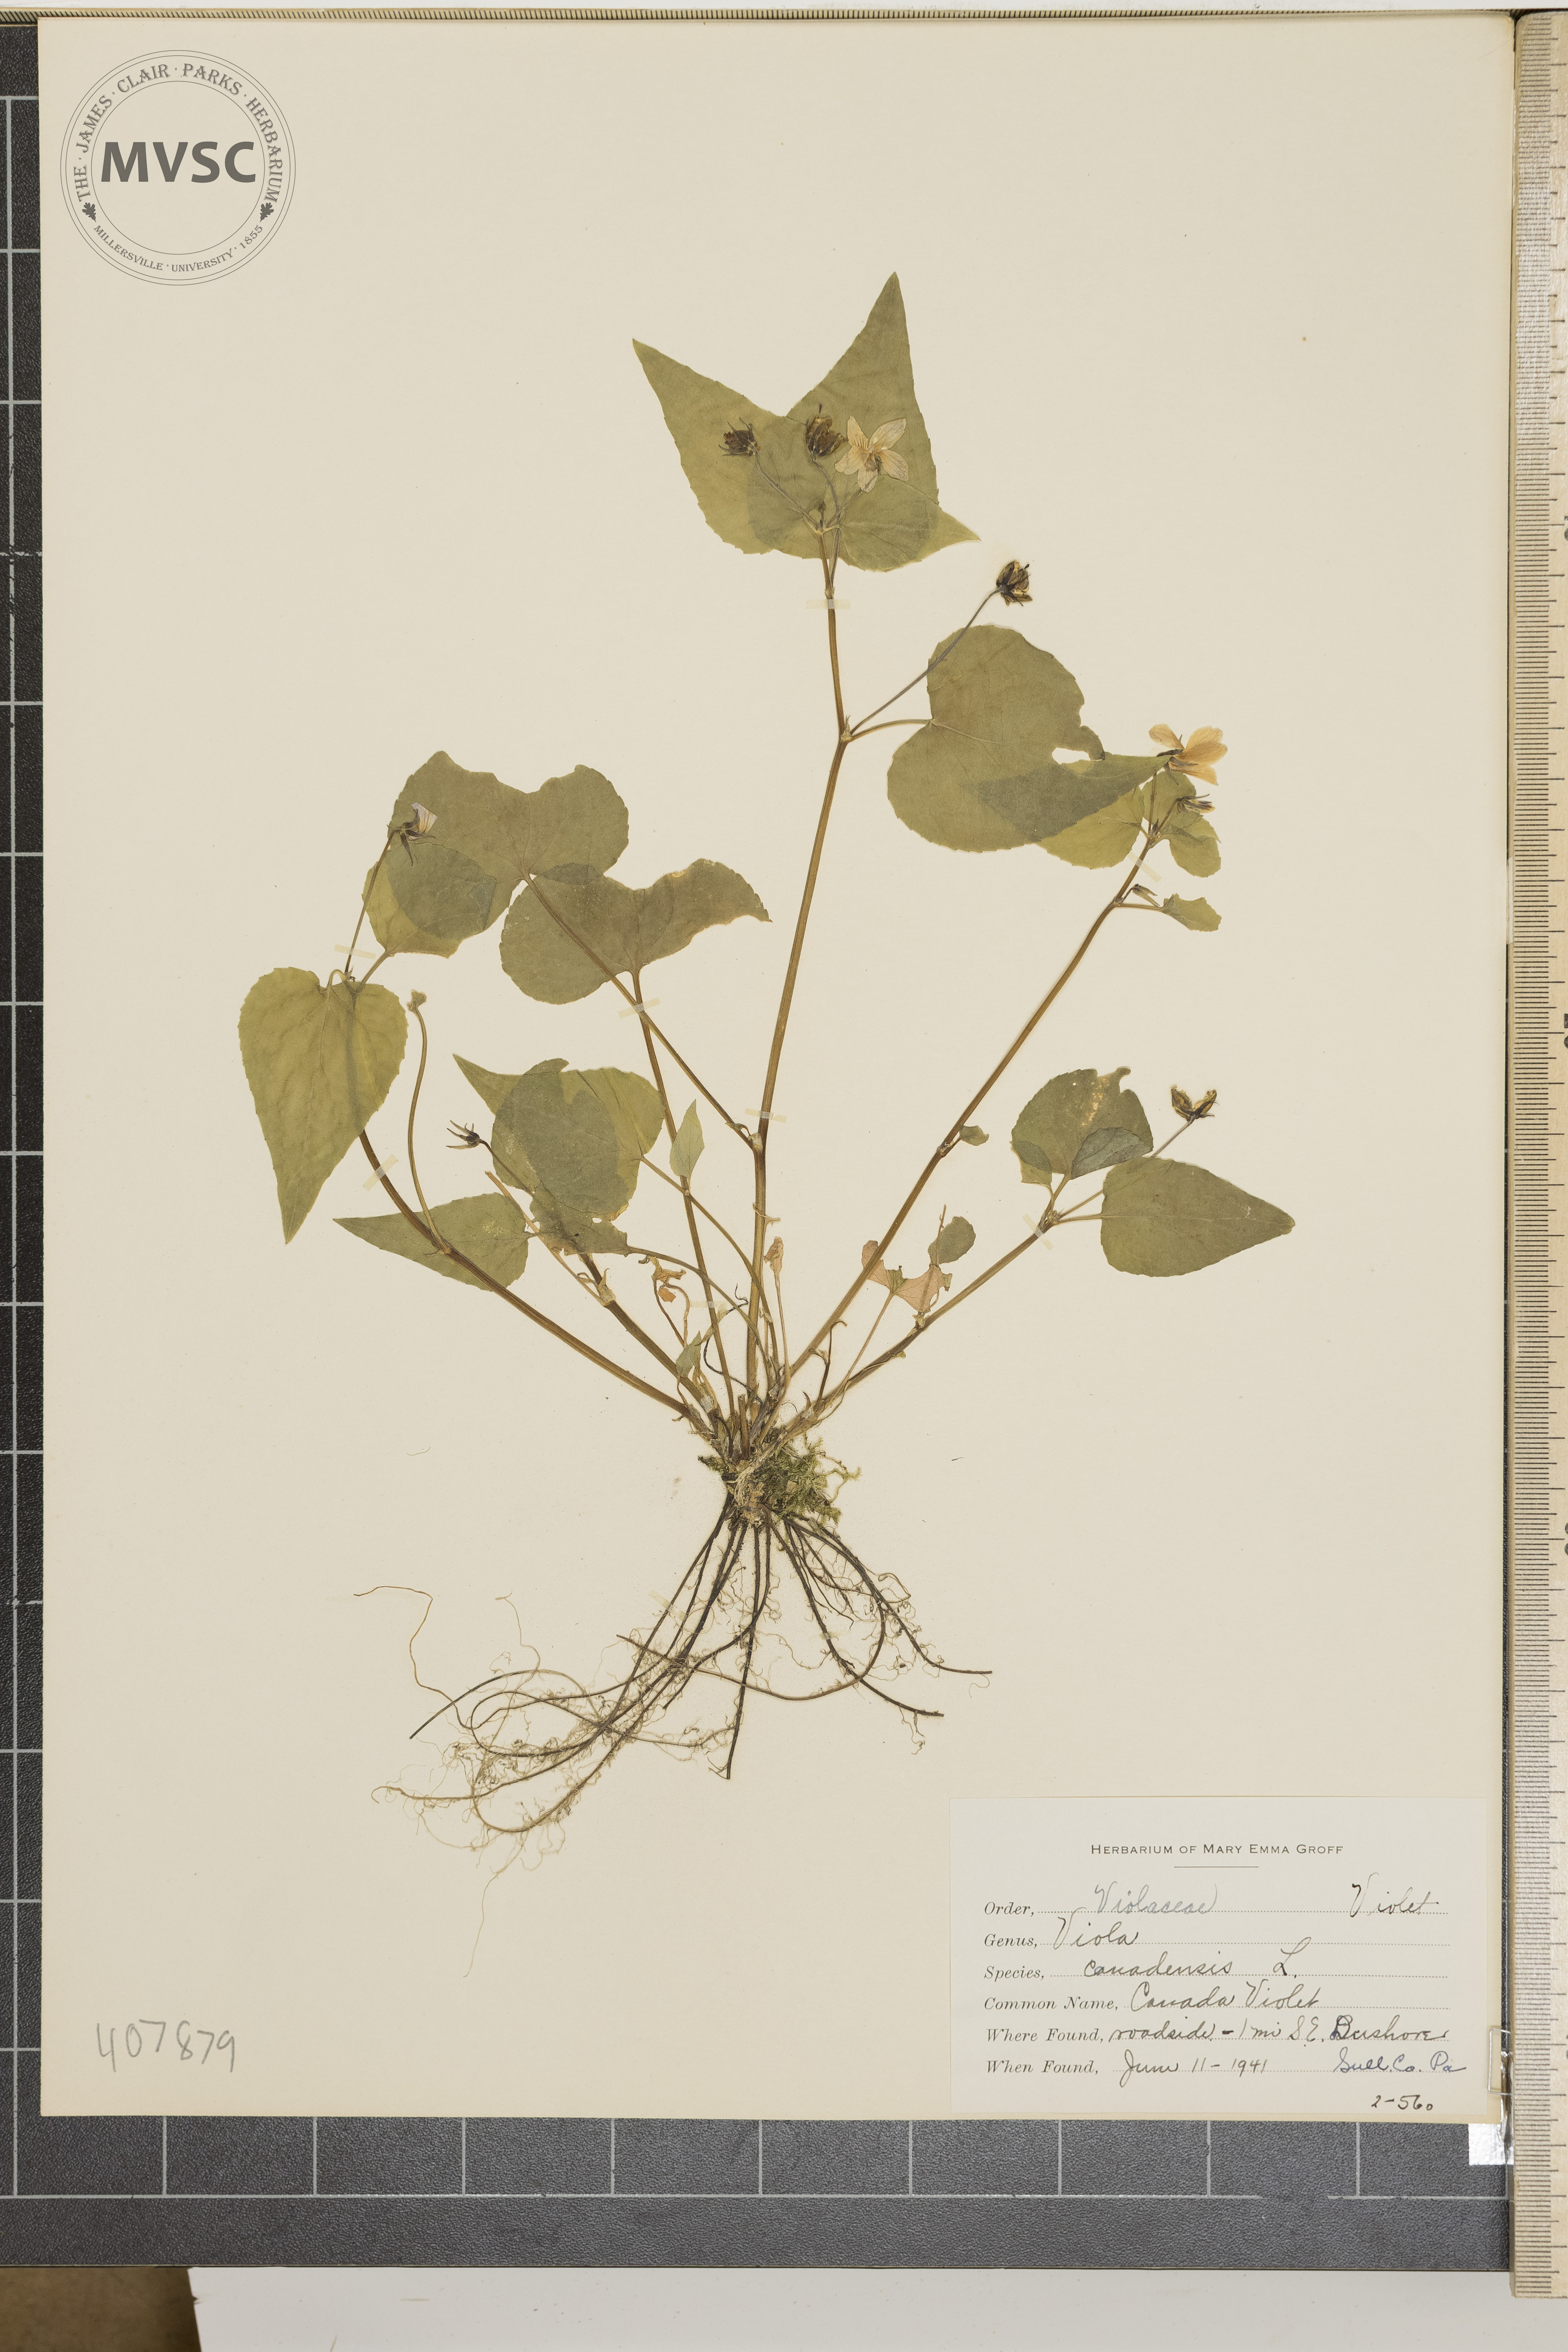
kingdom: Plantae
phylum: Tracheophyta
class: Magnoliopsida
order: Malpighiales
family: Violaceae
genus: Viola
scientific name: Viola canadensis
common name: Canada Violet
